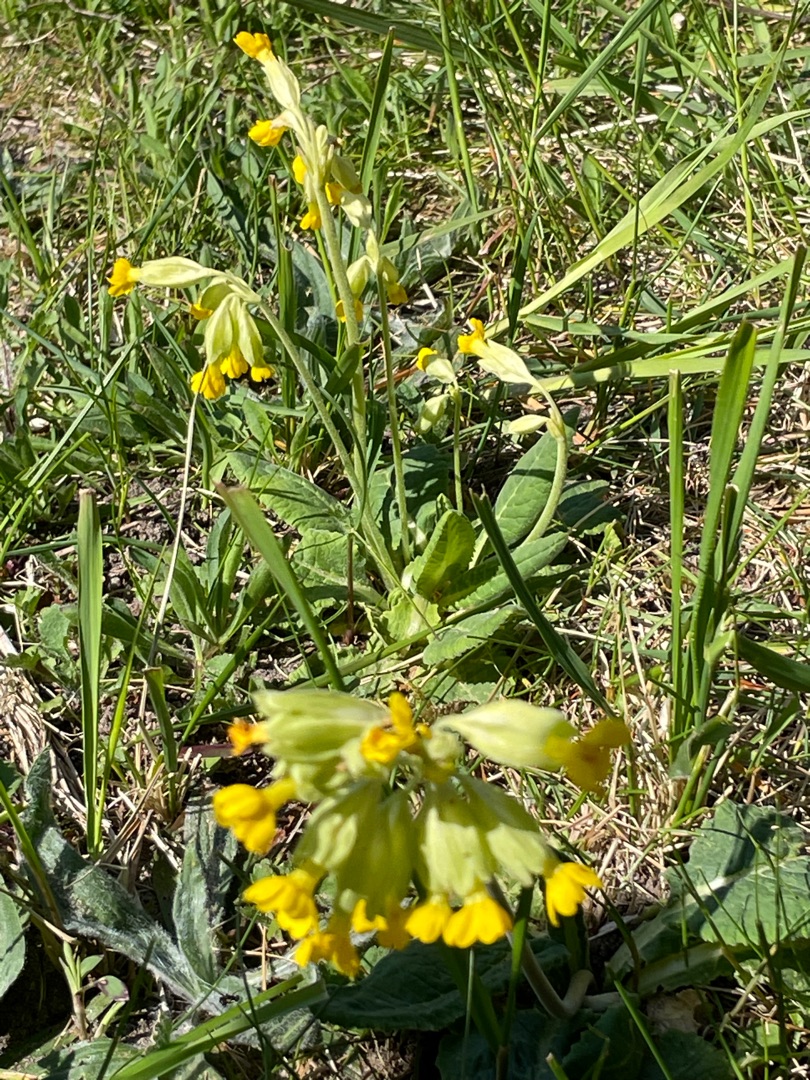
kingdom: Plantae
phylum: Tracheophyta
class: Magnoliopsida
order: Ericales
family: Primulaceae
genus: Primula
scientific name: Primula veris
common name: Hulkravet kodriver
